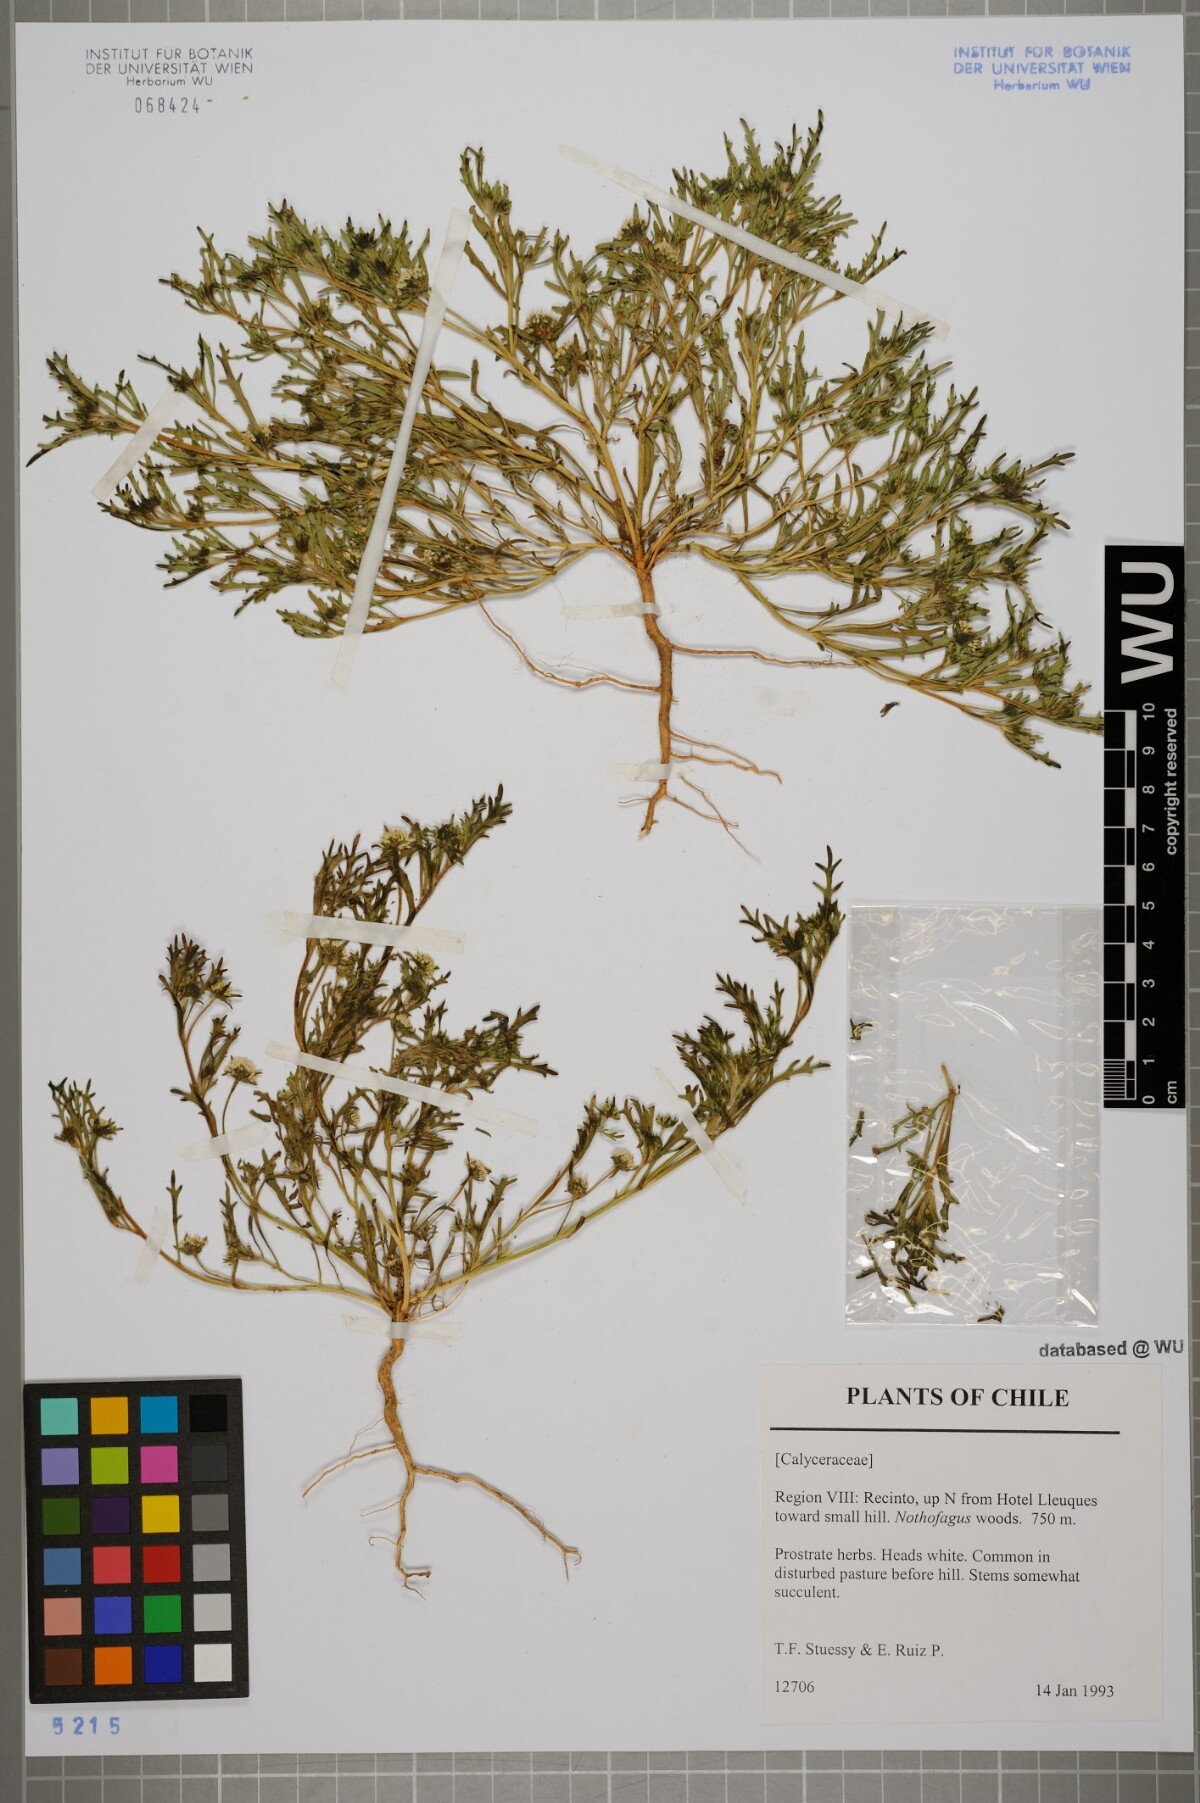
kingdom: Plantae
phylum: Tracheophyta
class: Magnoliopsida
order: Asterales
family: Calyceraceae
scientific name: Calyceraceae
